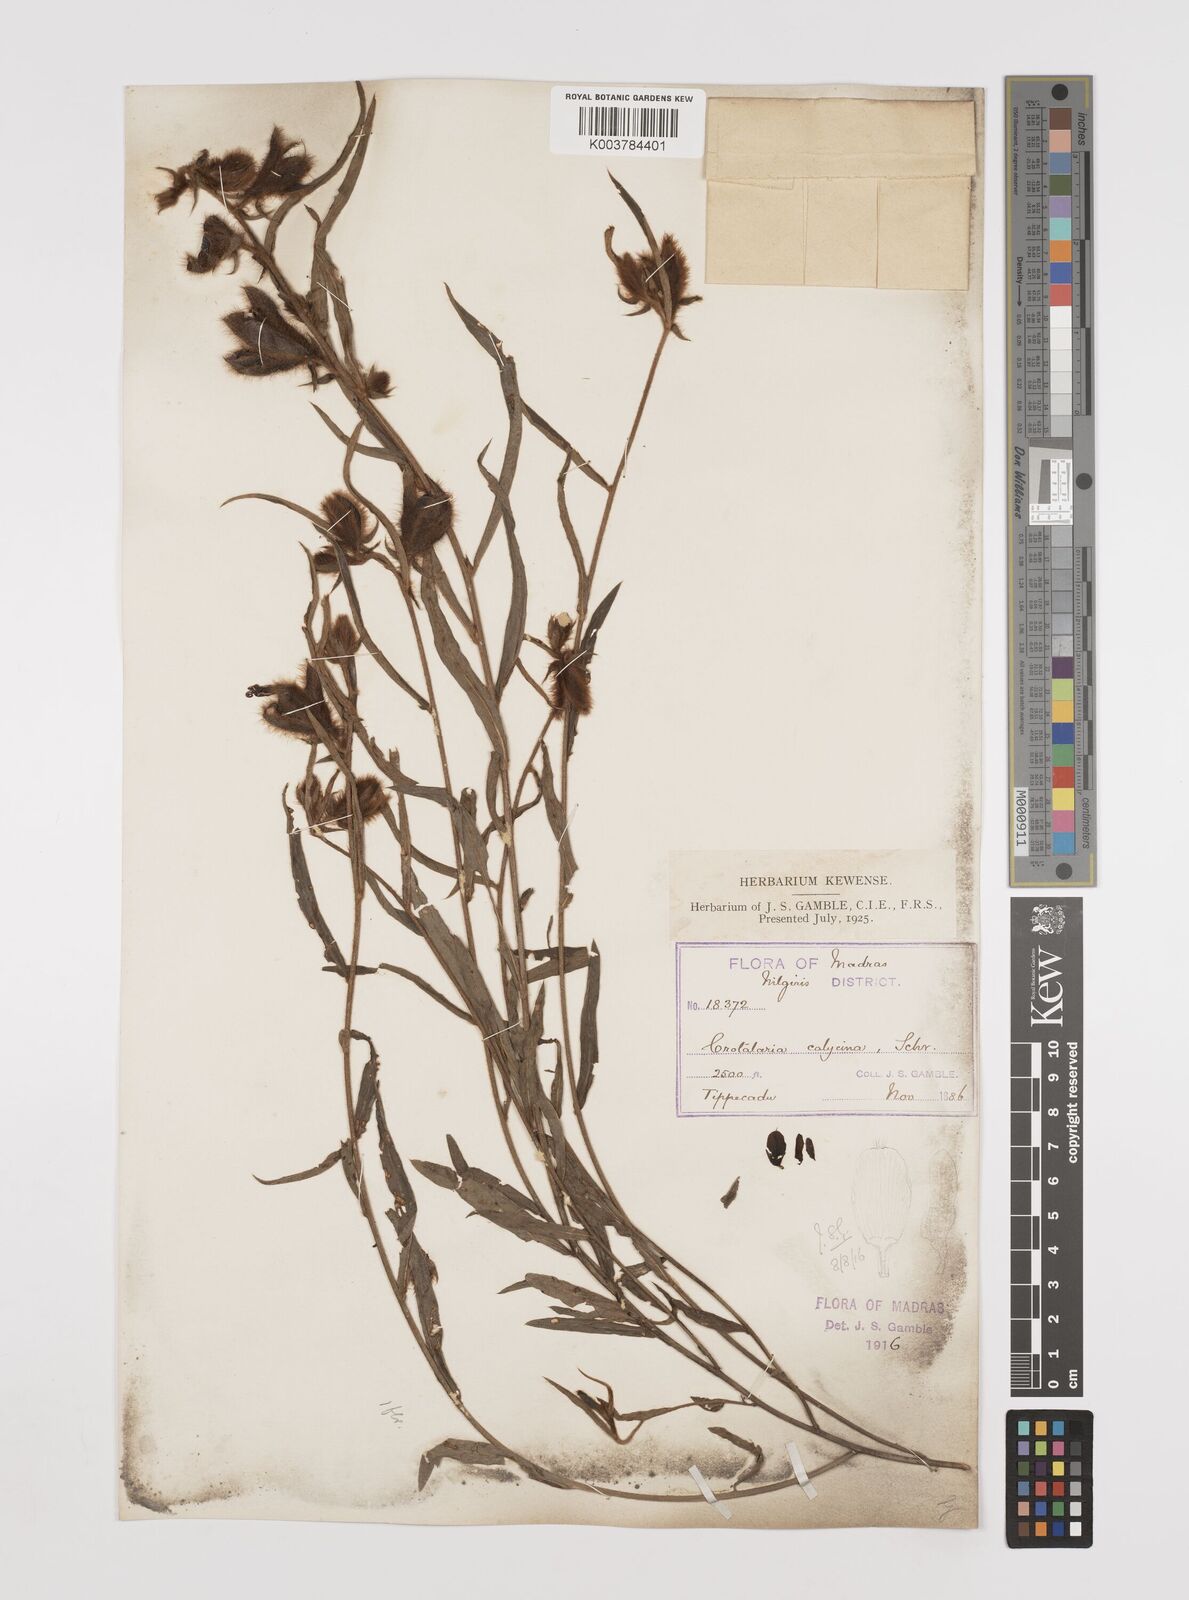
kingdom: Plantae
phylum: Tracheophyta
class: Magnoliopsida
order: Fabales
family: Fabaceae
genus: Crotalaria
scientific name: Crotalaria calycina
